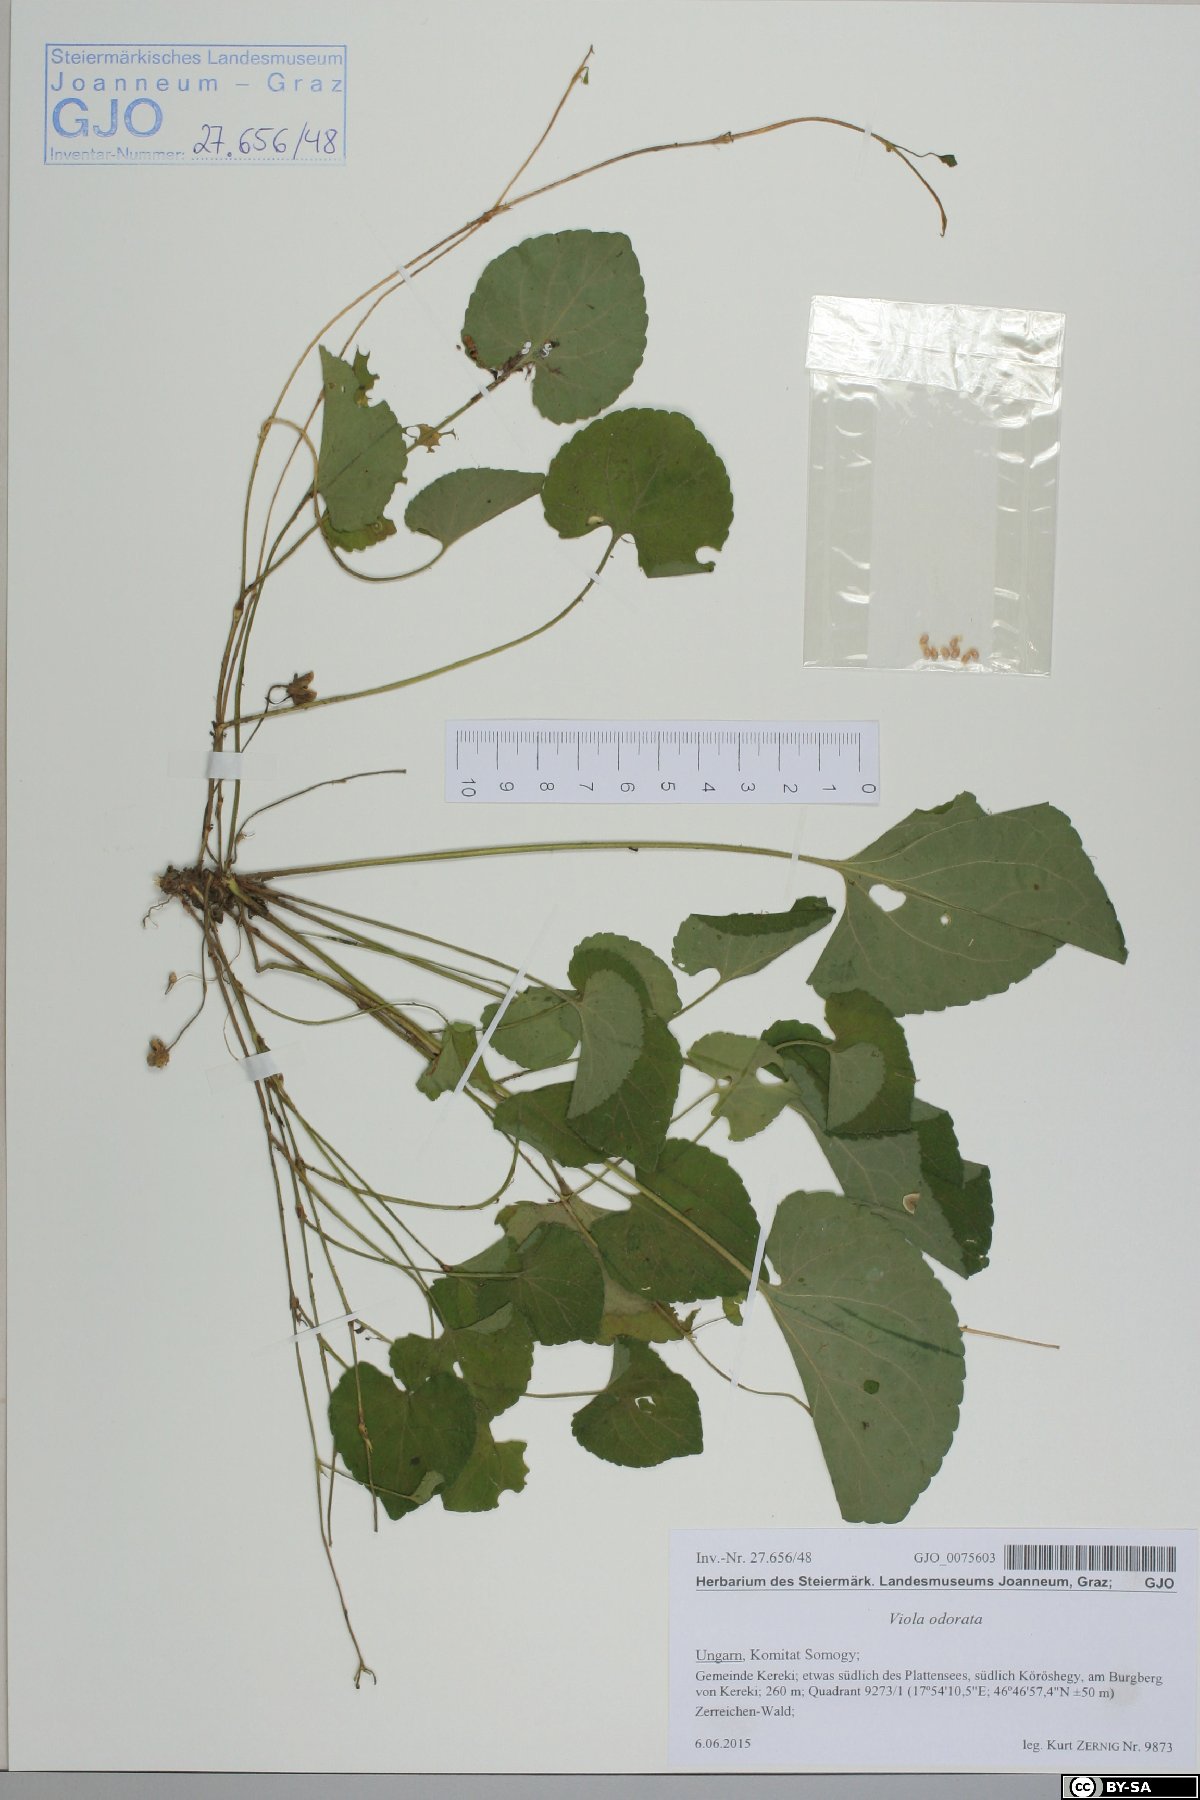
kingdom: Plantae
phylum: Tracheophyta
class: Magnoliopsida
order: Malpighiales
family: Violaceae
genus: Viola
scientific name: Viola odorata
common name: Sweet violet
